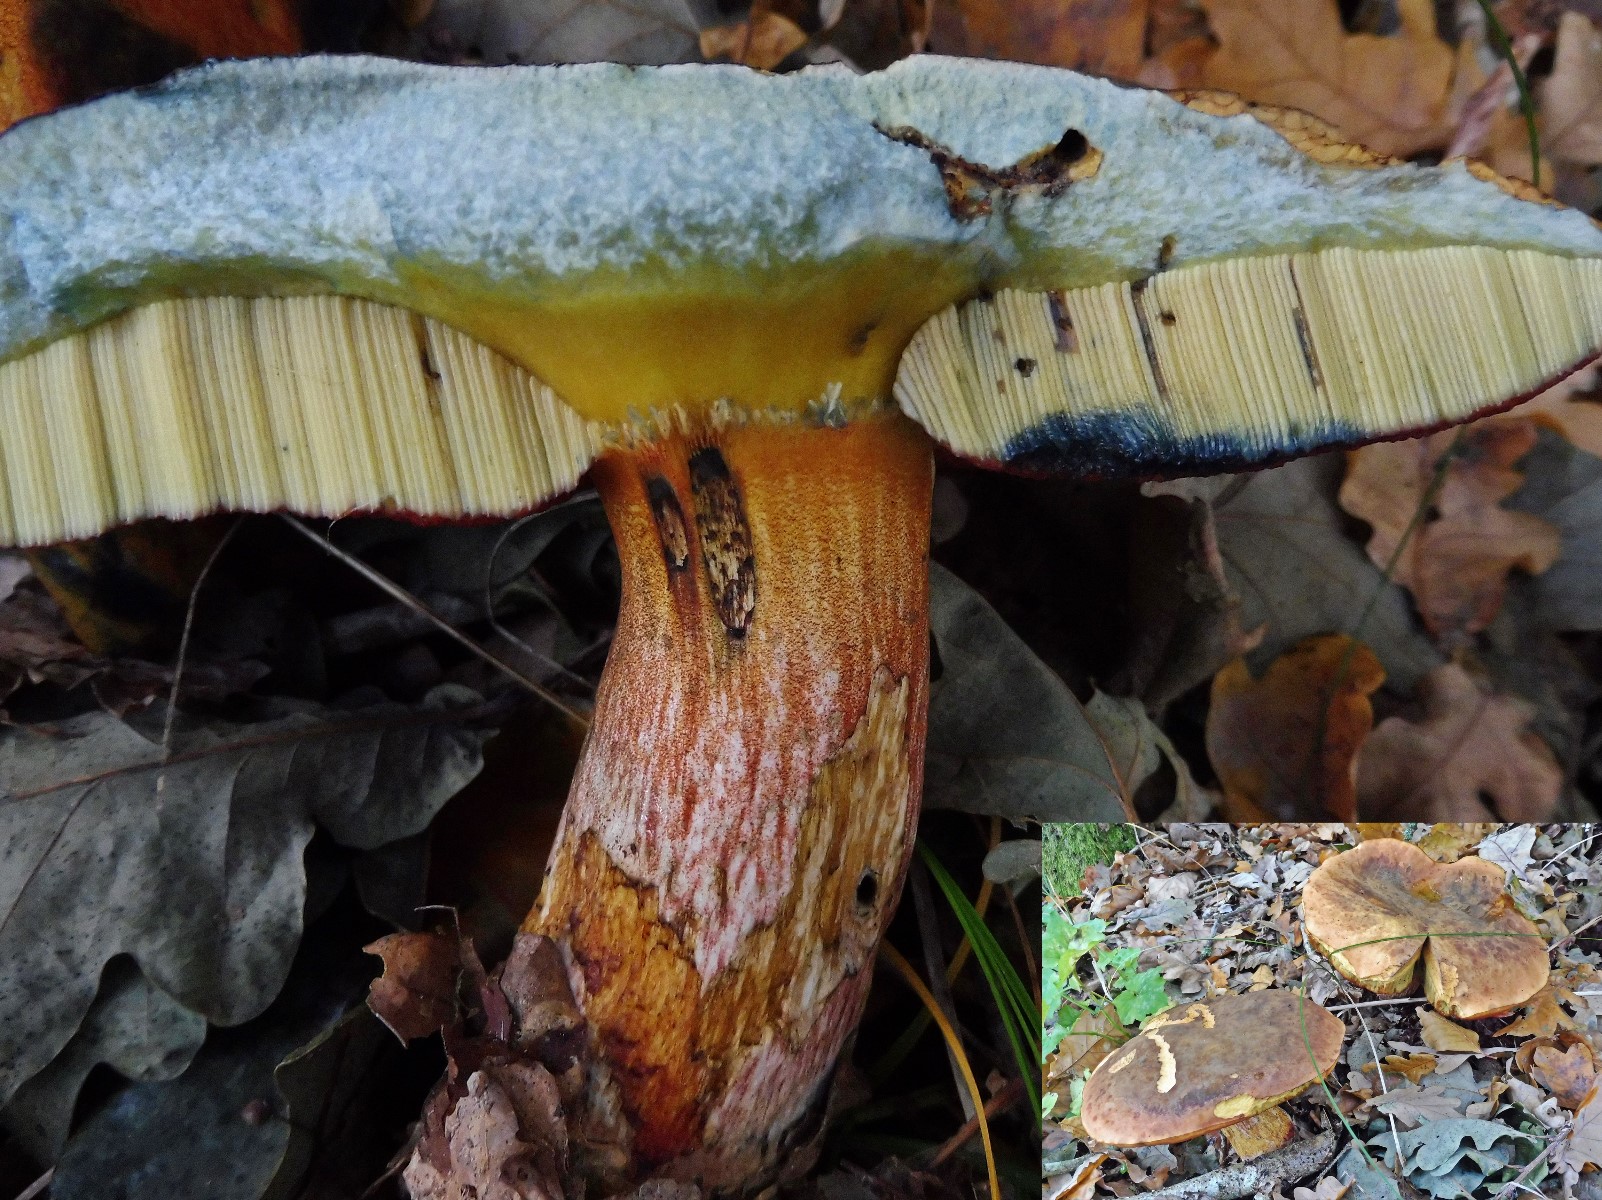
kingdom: Fungi
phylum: Basidiomycota
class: Agaricomycetes
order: Boletales
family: Boletaceae
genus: Neoboletus
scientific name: Neoboletus erythropus
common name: punktstokket indigorørhat
